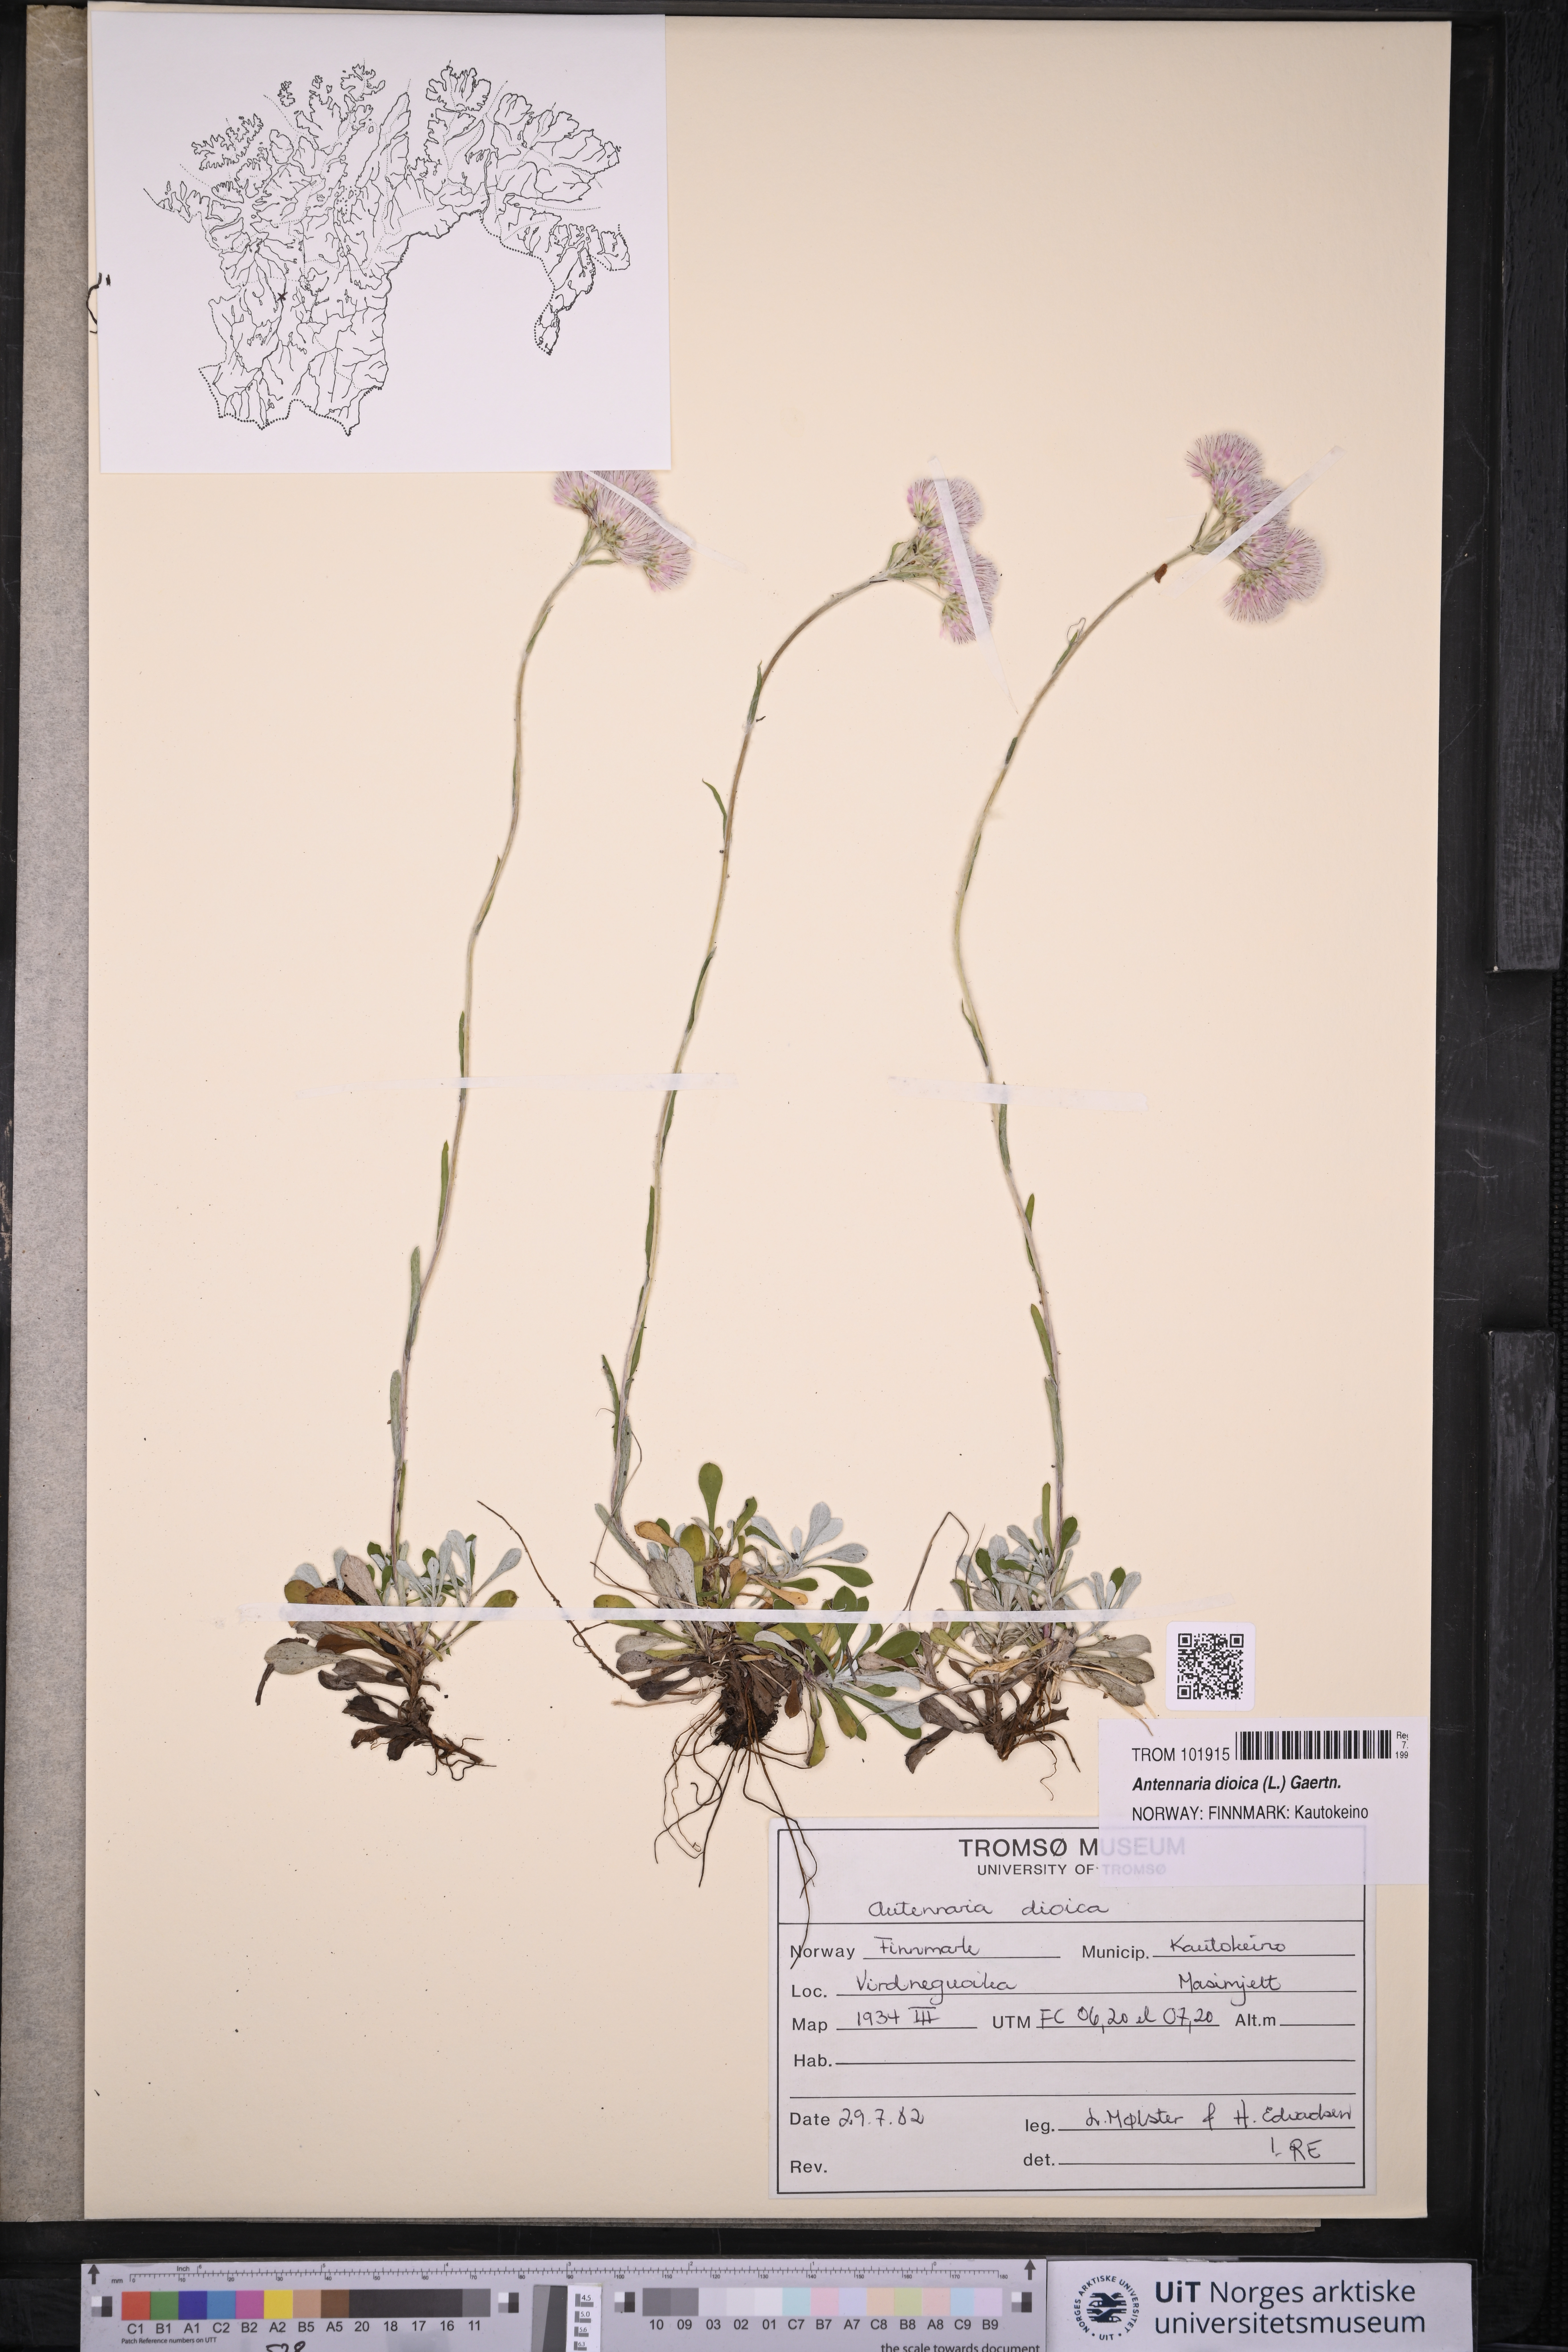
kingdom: Plantae
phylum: Tracheophyta
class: Magnoliopsida
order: Asterales
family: Asteraceae
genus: Antennaria
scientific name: Antennaria dioica
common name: Mountain everlasting
